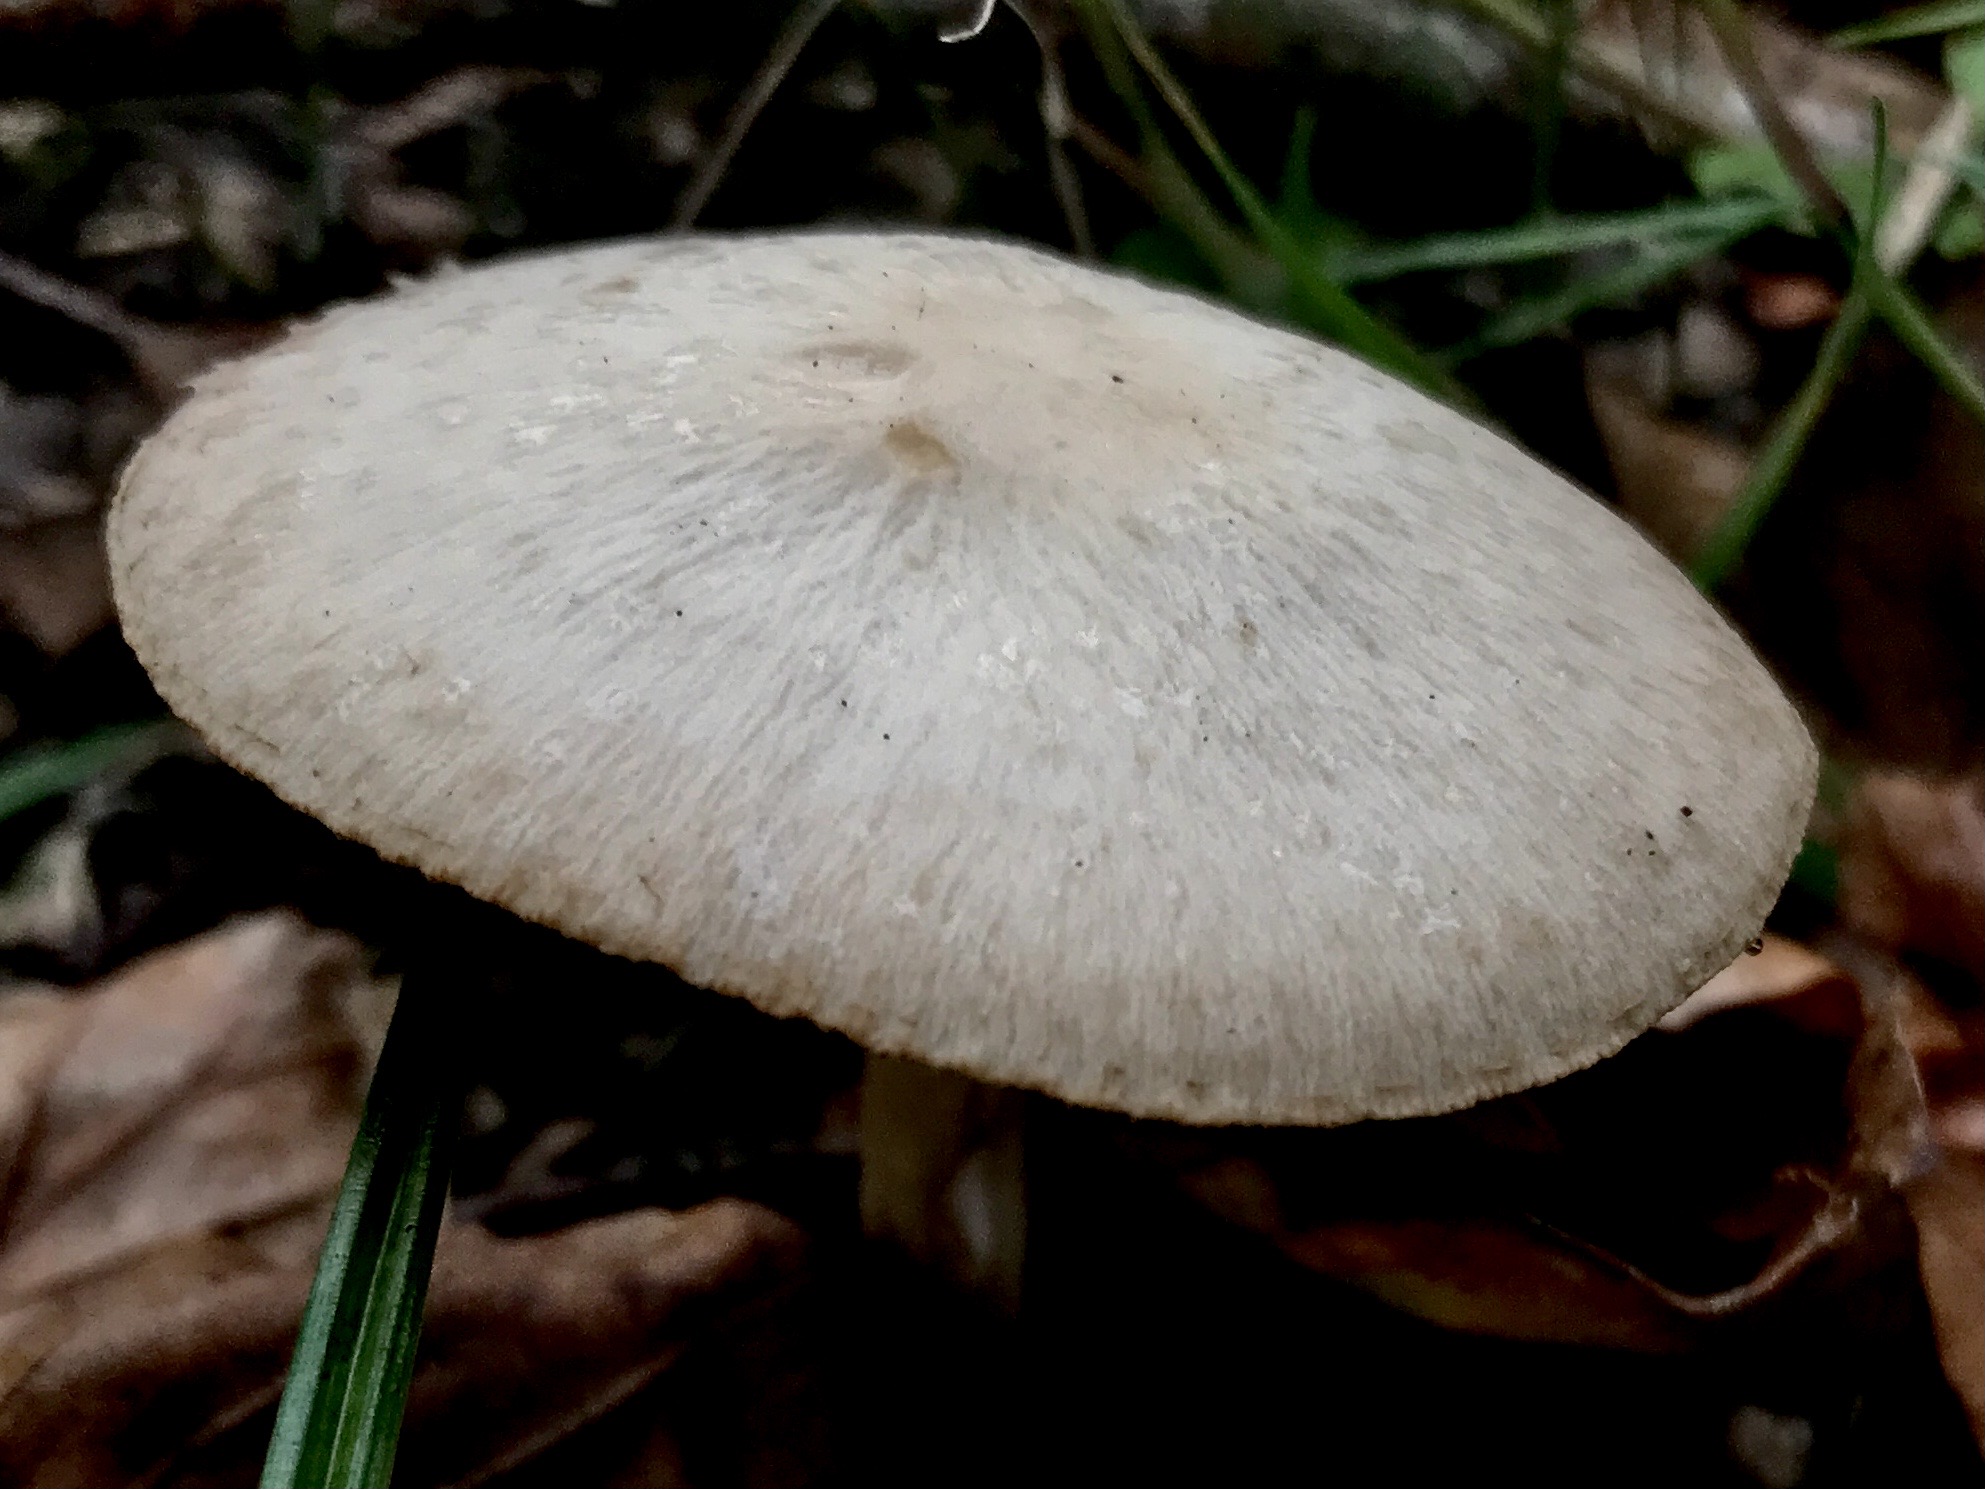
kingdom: Fungi
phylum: Basidiomycota
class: Agaricomycetes
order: Agaricales
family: Psathyrellaceae
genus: Psathyrella
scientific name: Psathyrella
